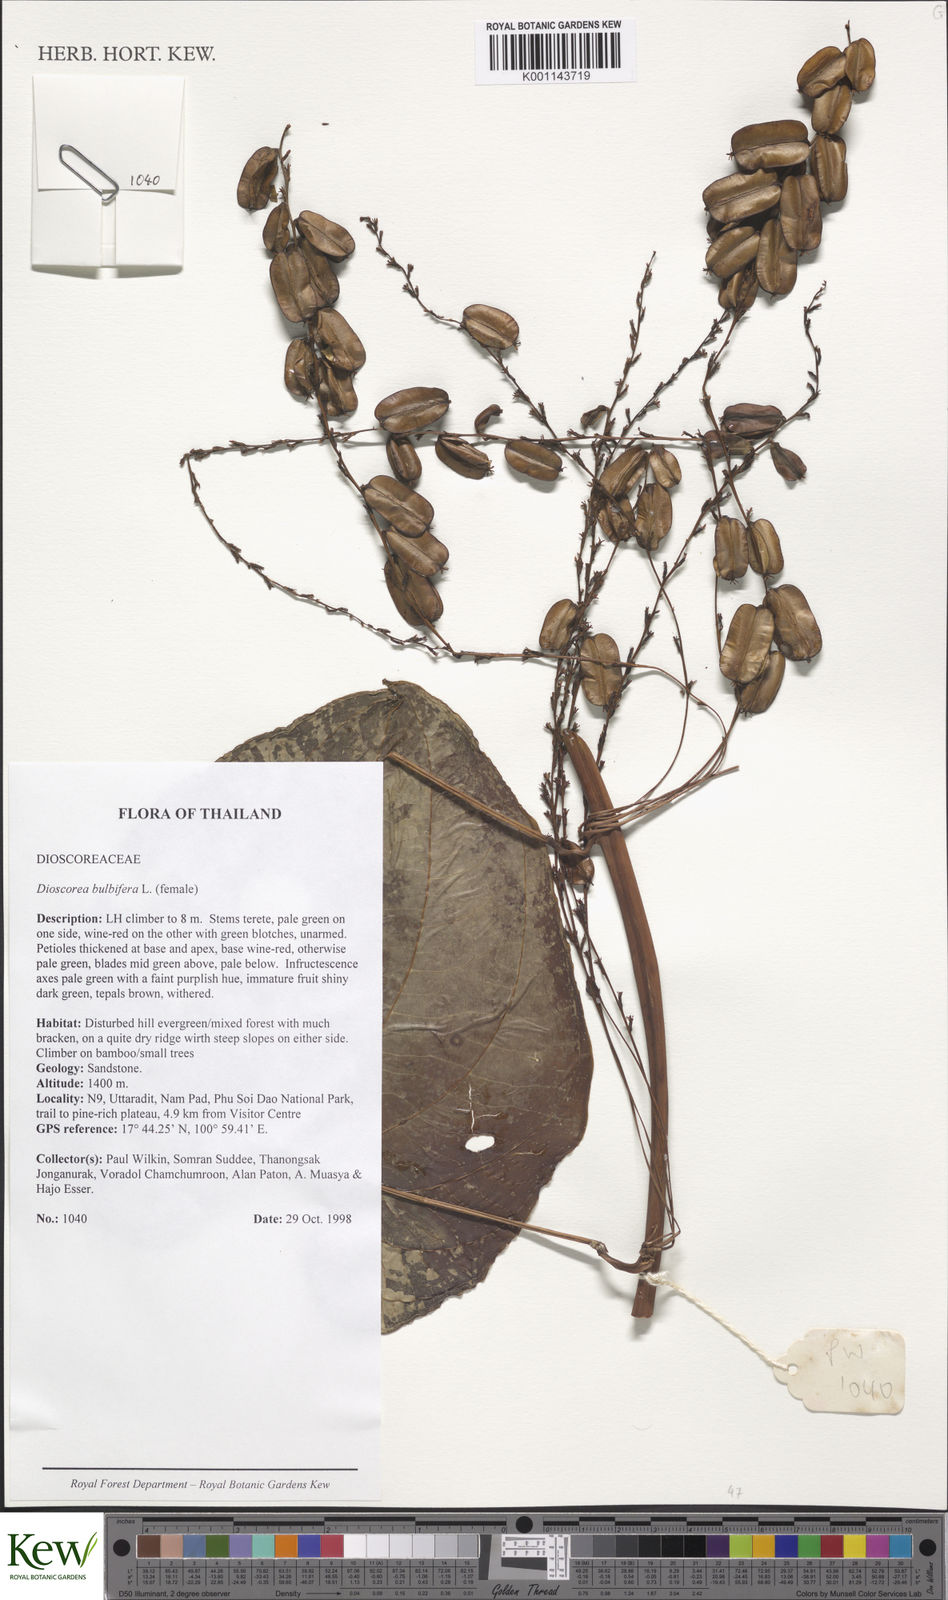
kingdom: Plantae
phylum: Tracheophyta
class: Liliopsida
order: Dioscoreales
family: Dioscoreaceae
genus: Dioscorea
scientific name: Dioscorea bulbifera
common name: Air yam
